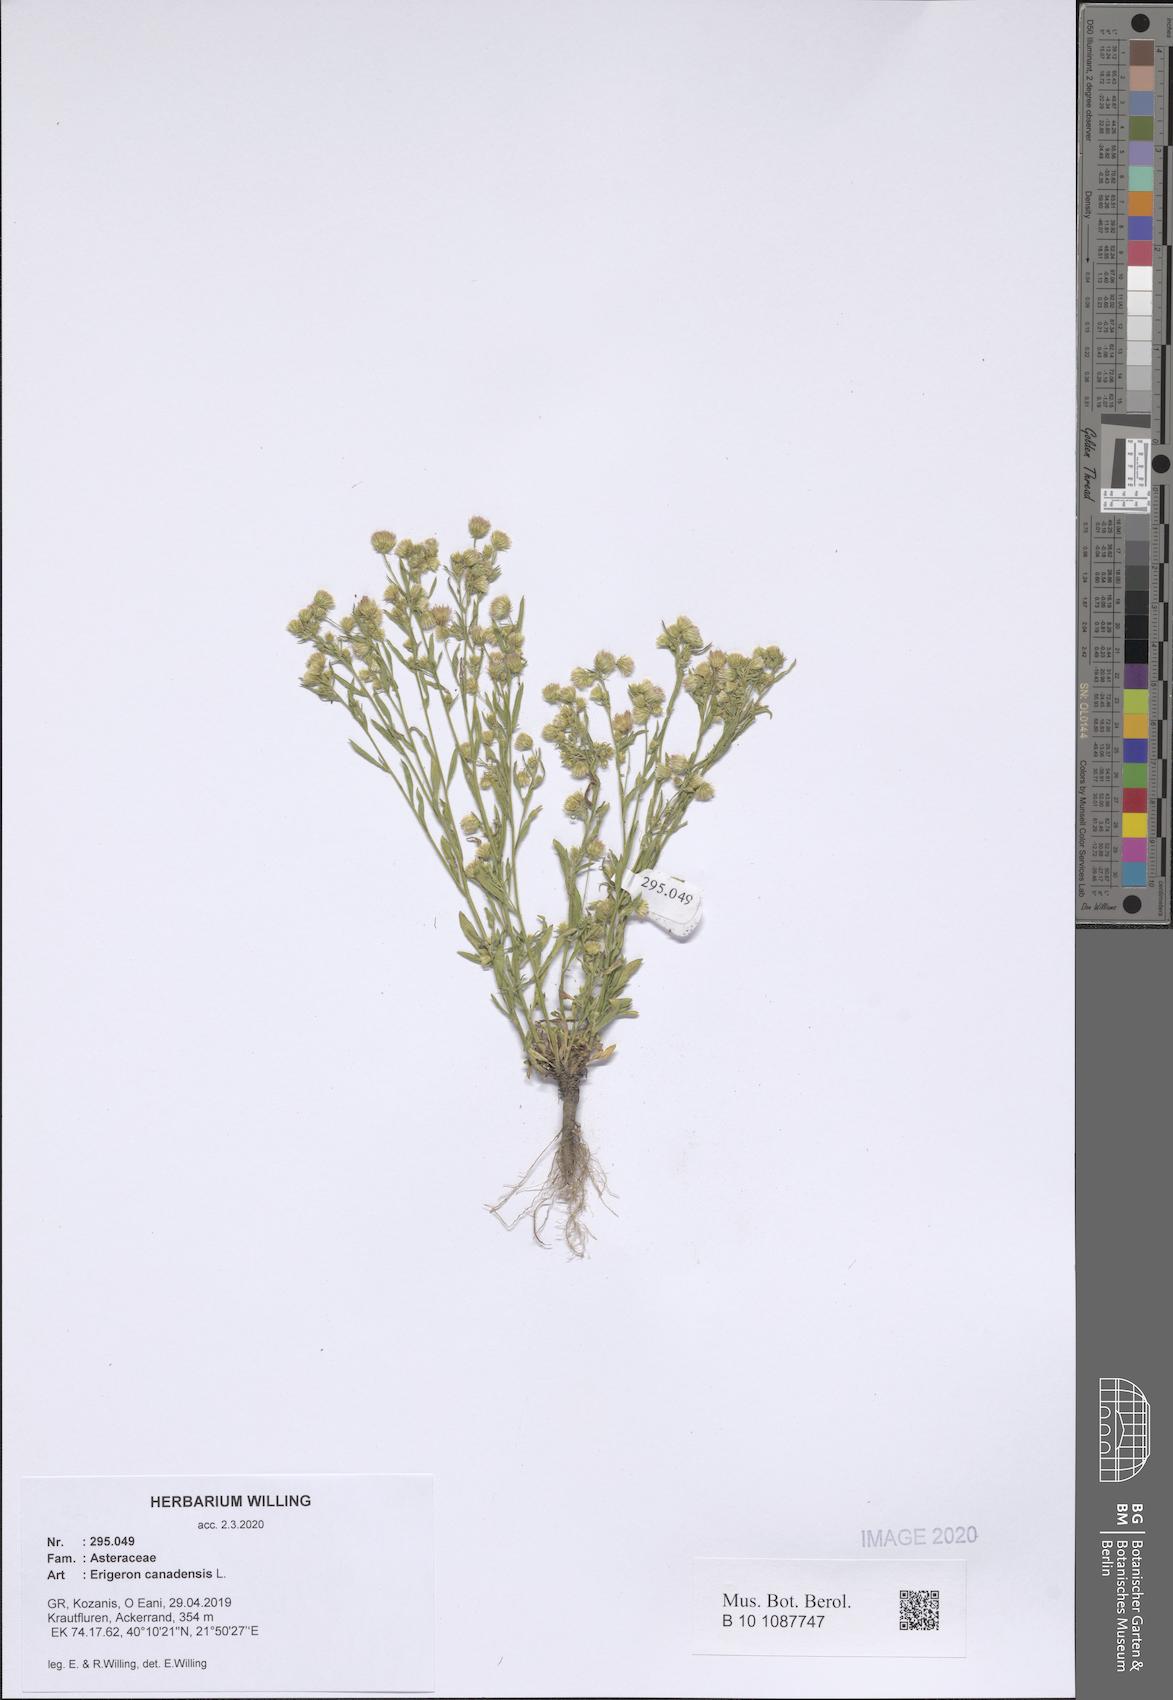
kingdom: Plantae
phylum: Tracheophyta
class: Magnoliopsida
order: Asterales
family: Asteraceae
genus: Erigeron
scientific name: Erigeron canadensis
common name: Canadian fleabane
